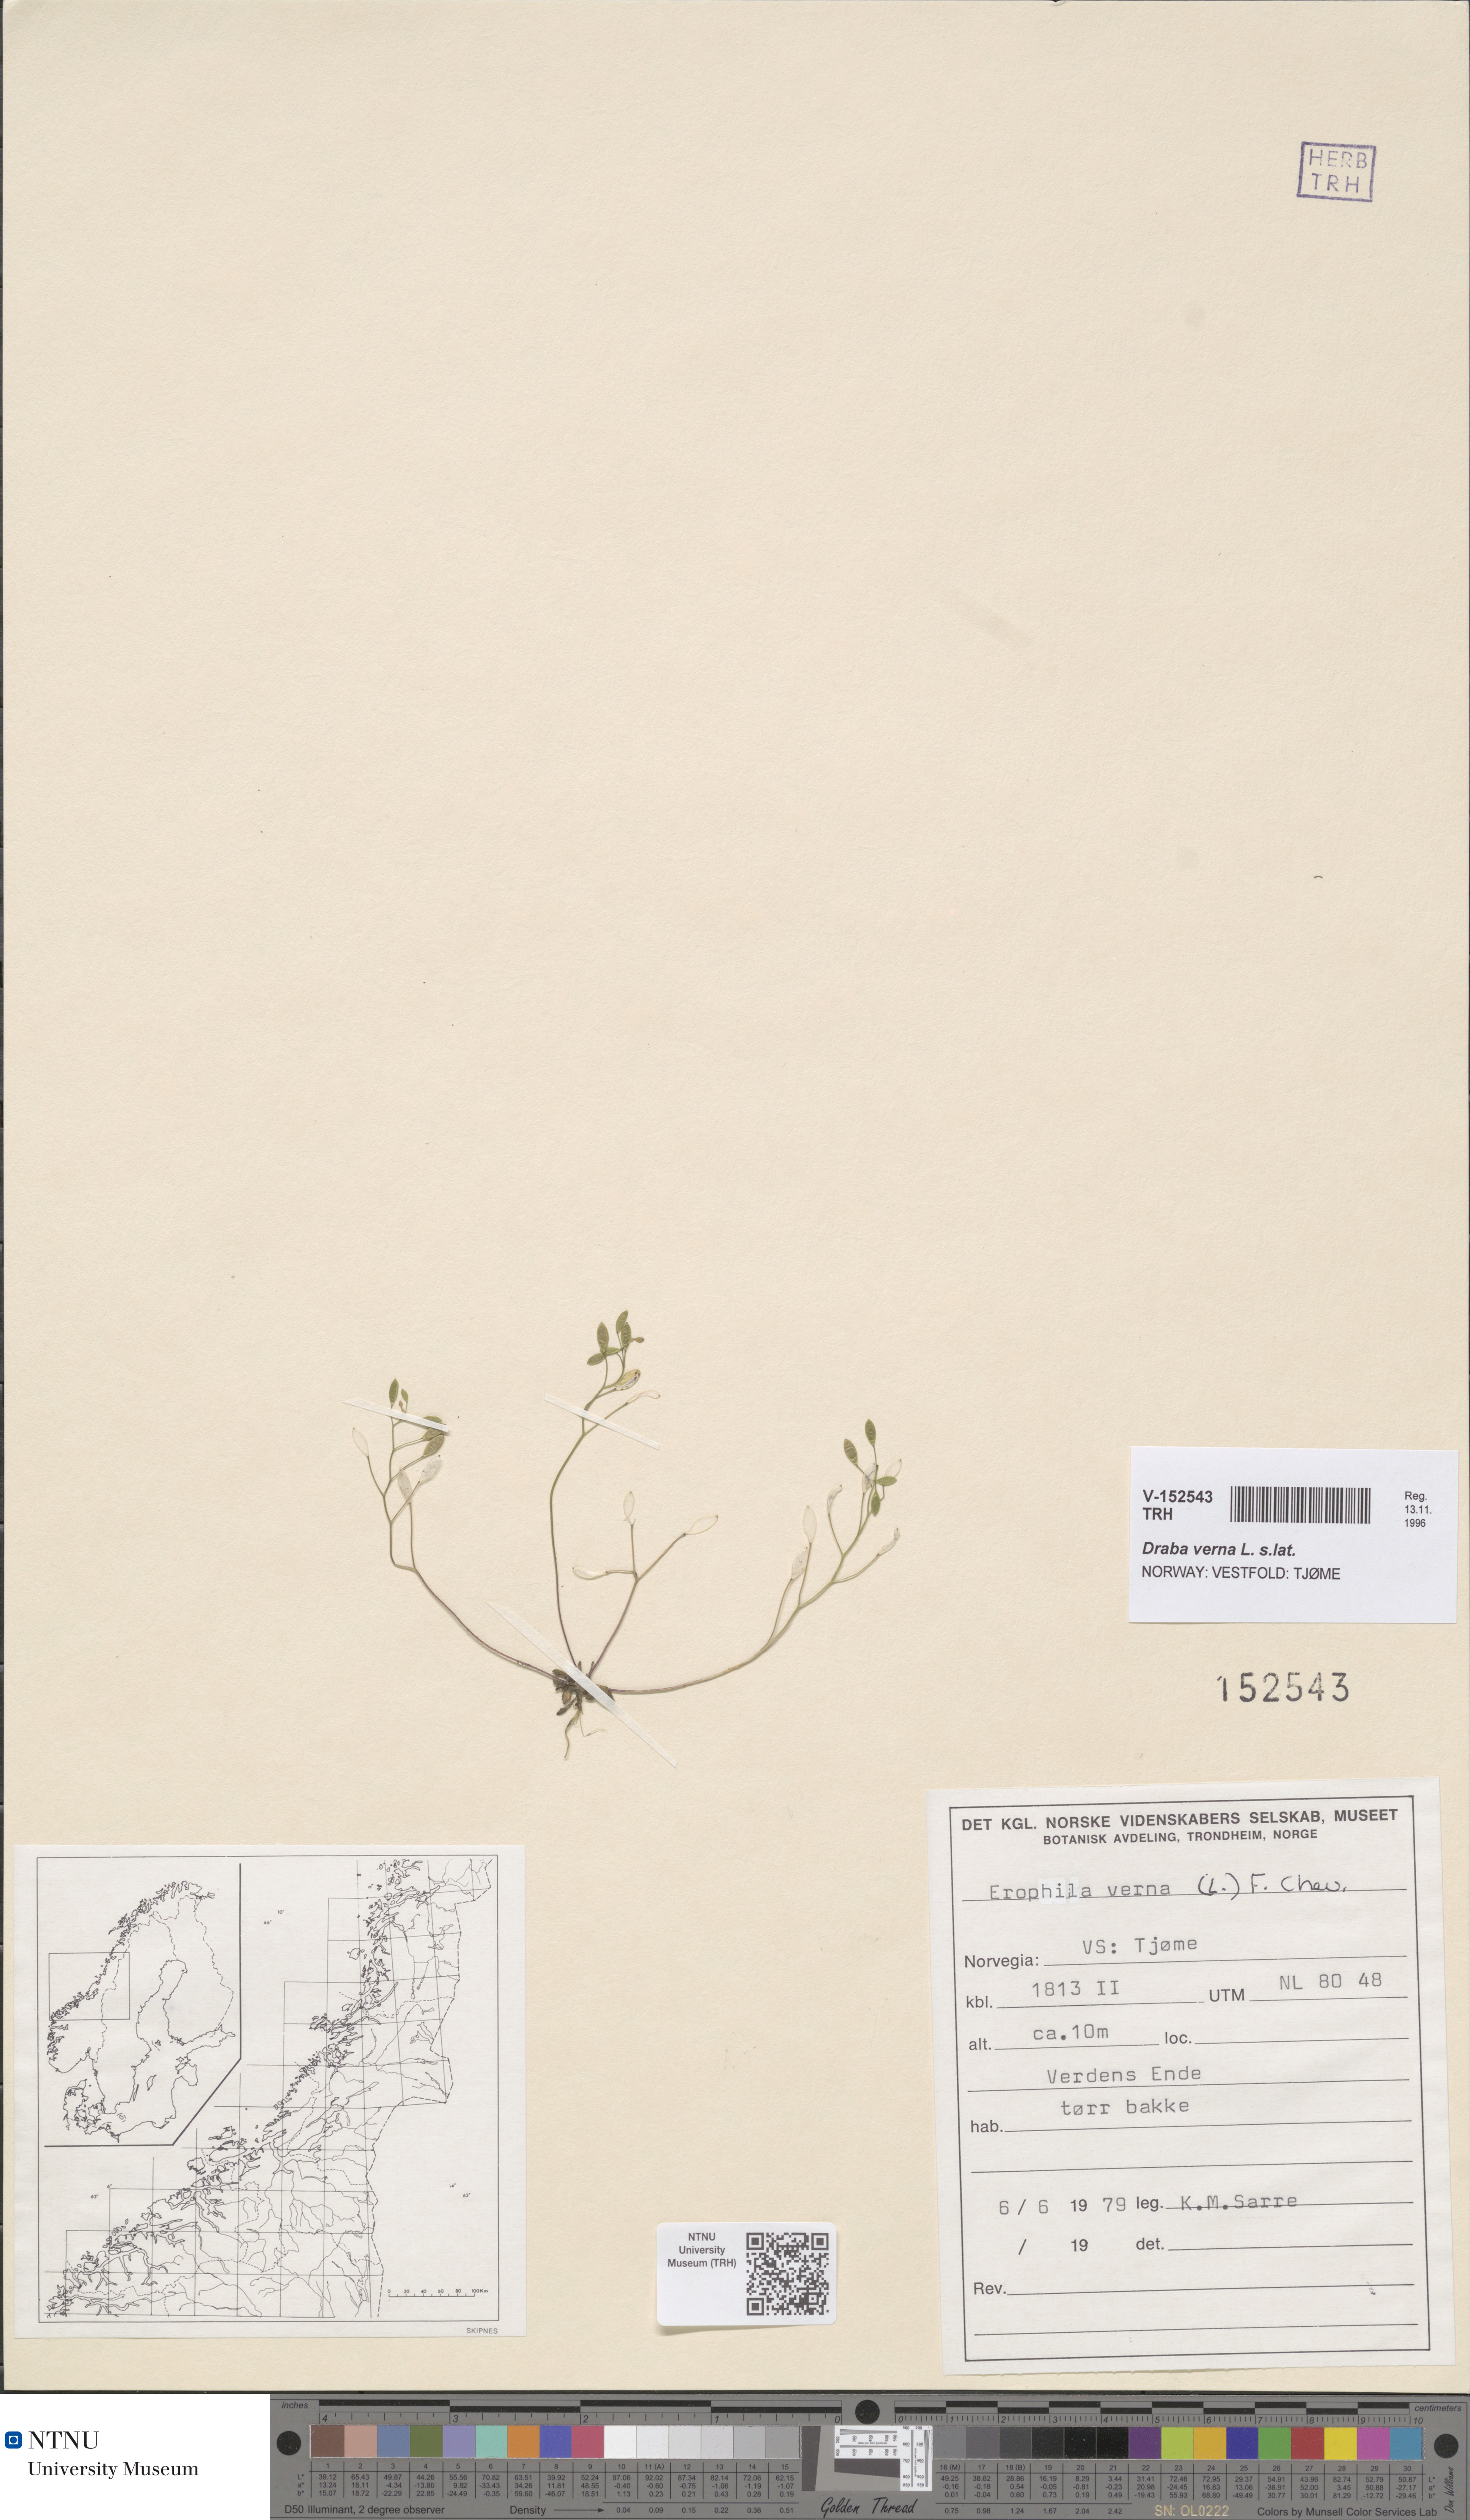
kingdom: Plantae
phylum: Tracheophyta
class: Magnoliopsida
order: Brassicales
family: Brassicaceae
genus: Draba
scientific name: Draba verna
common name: Spring draba
